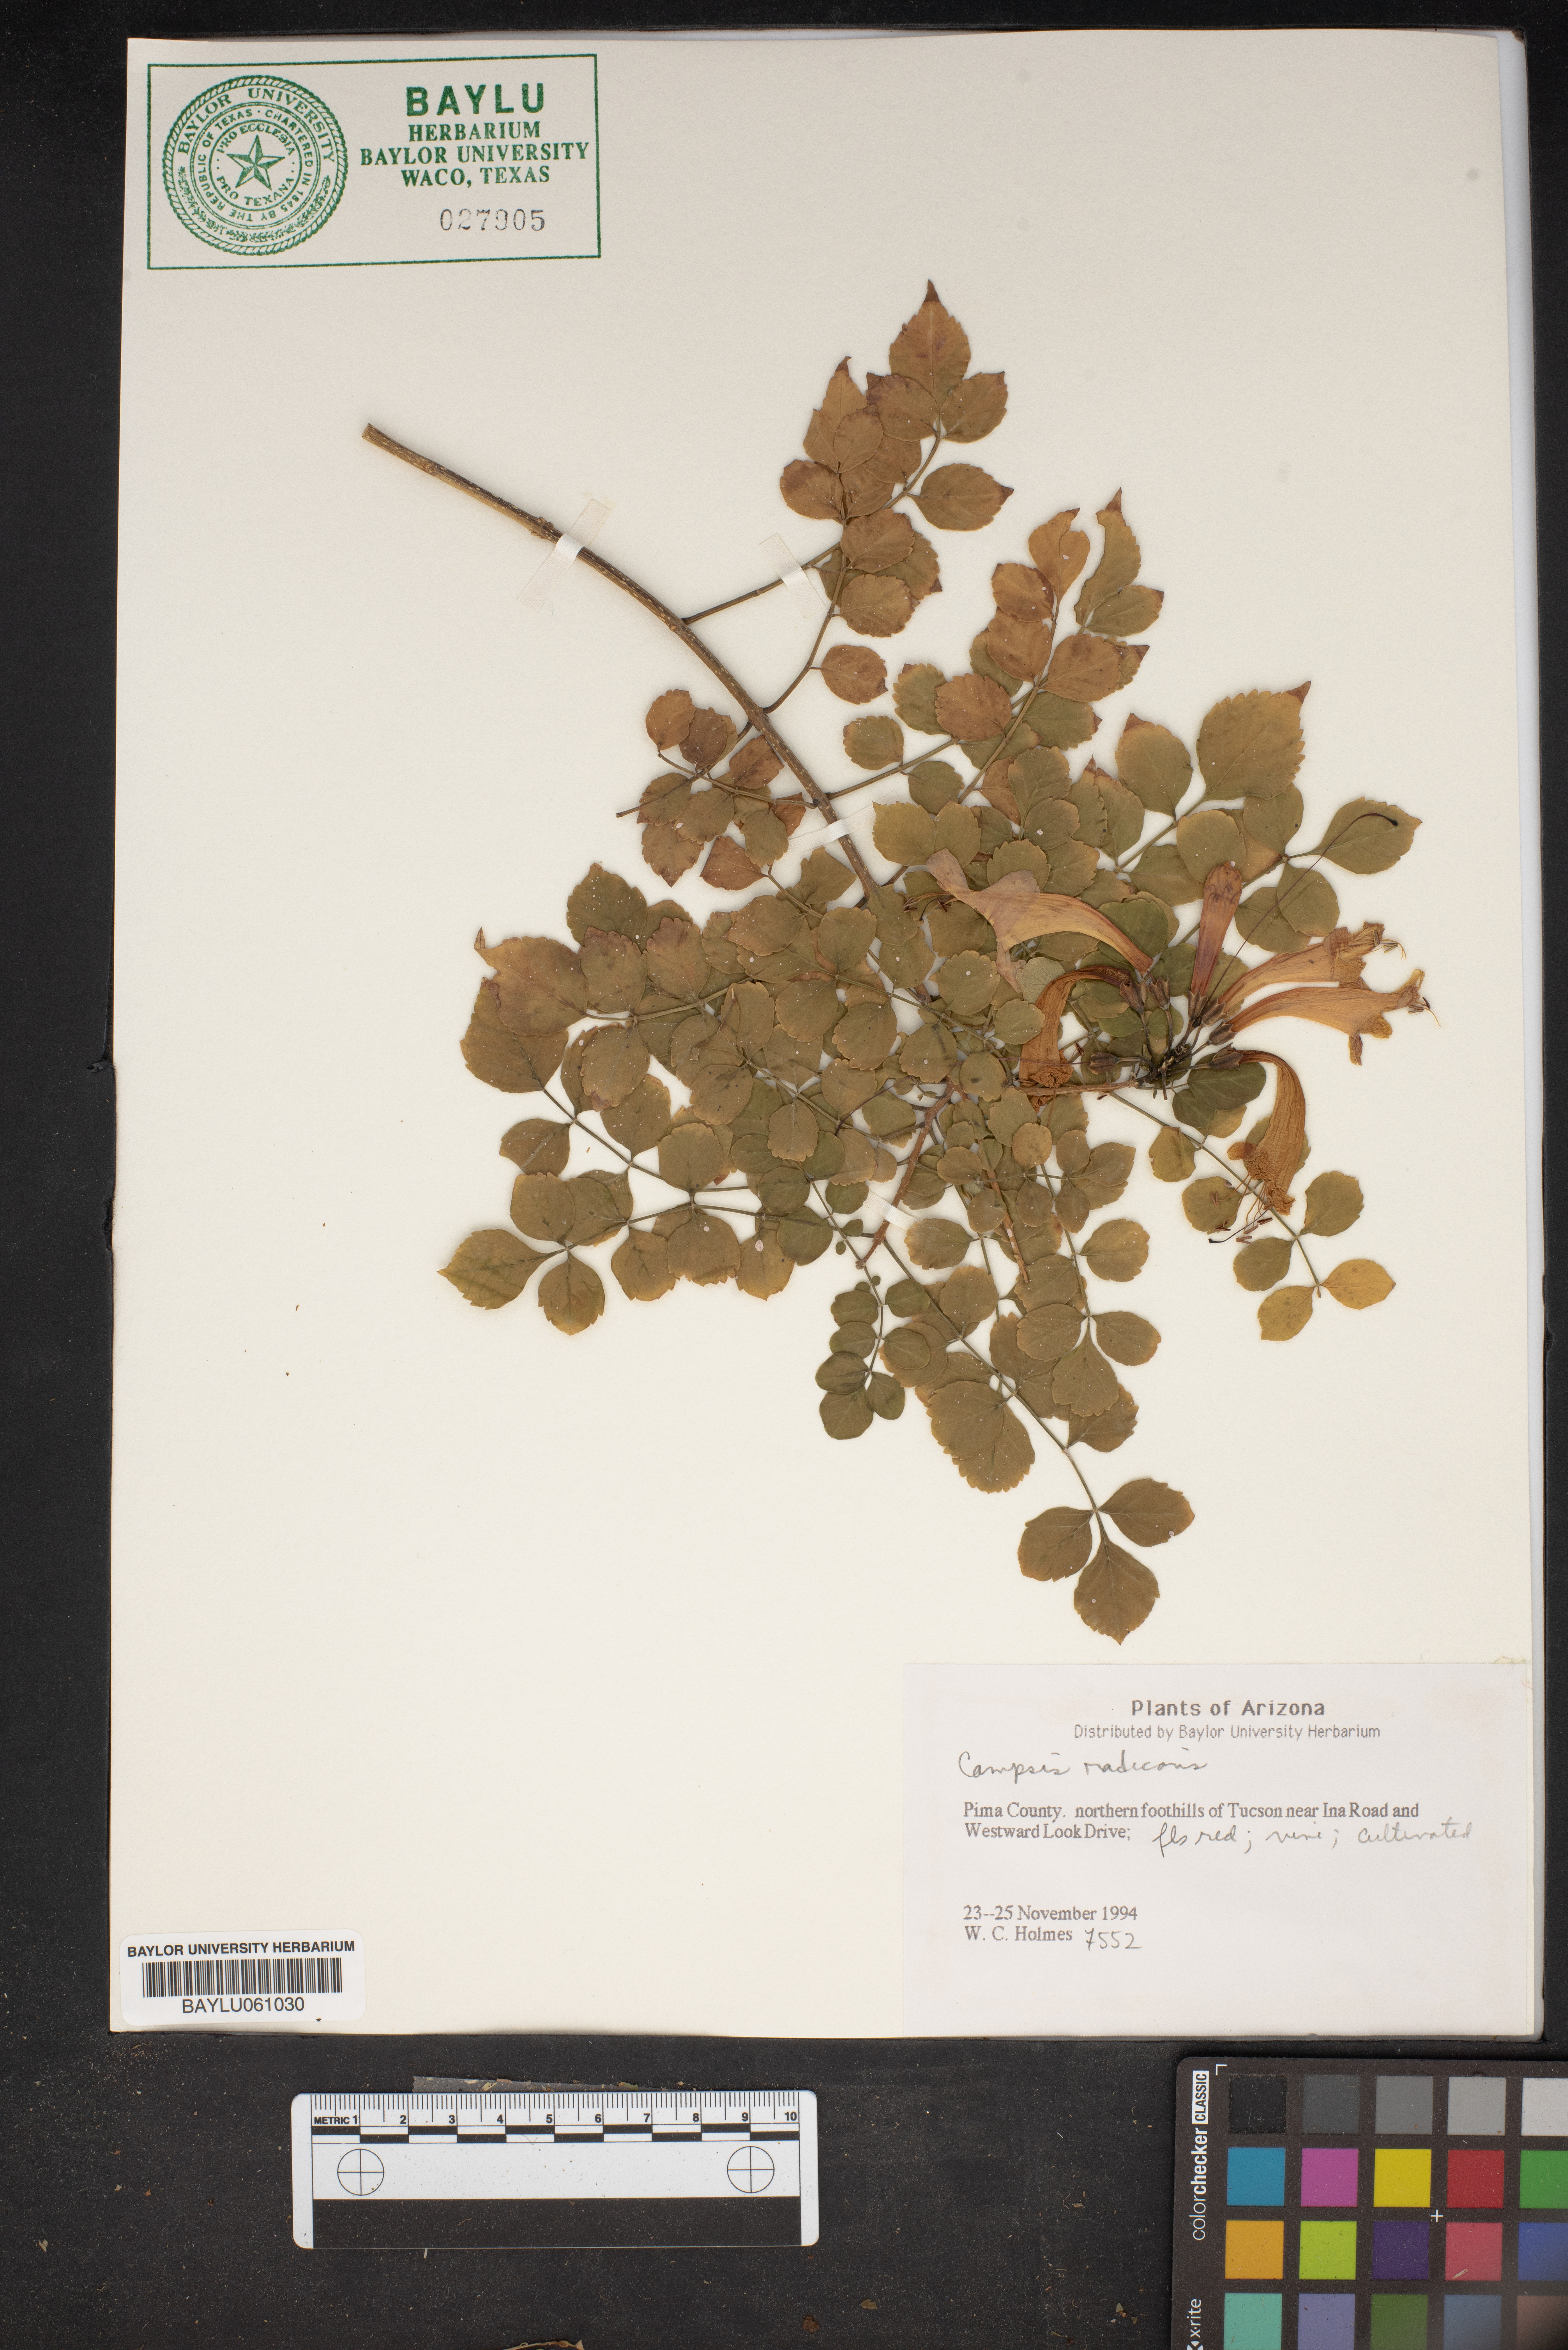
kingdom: Plantae
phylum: Tracheophyta
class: Magnoliopsida
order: Lamiales
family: Bignoniaceae
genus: Campsis
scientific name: Campsis radicans
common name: Trumpet-creeper
